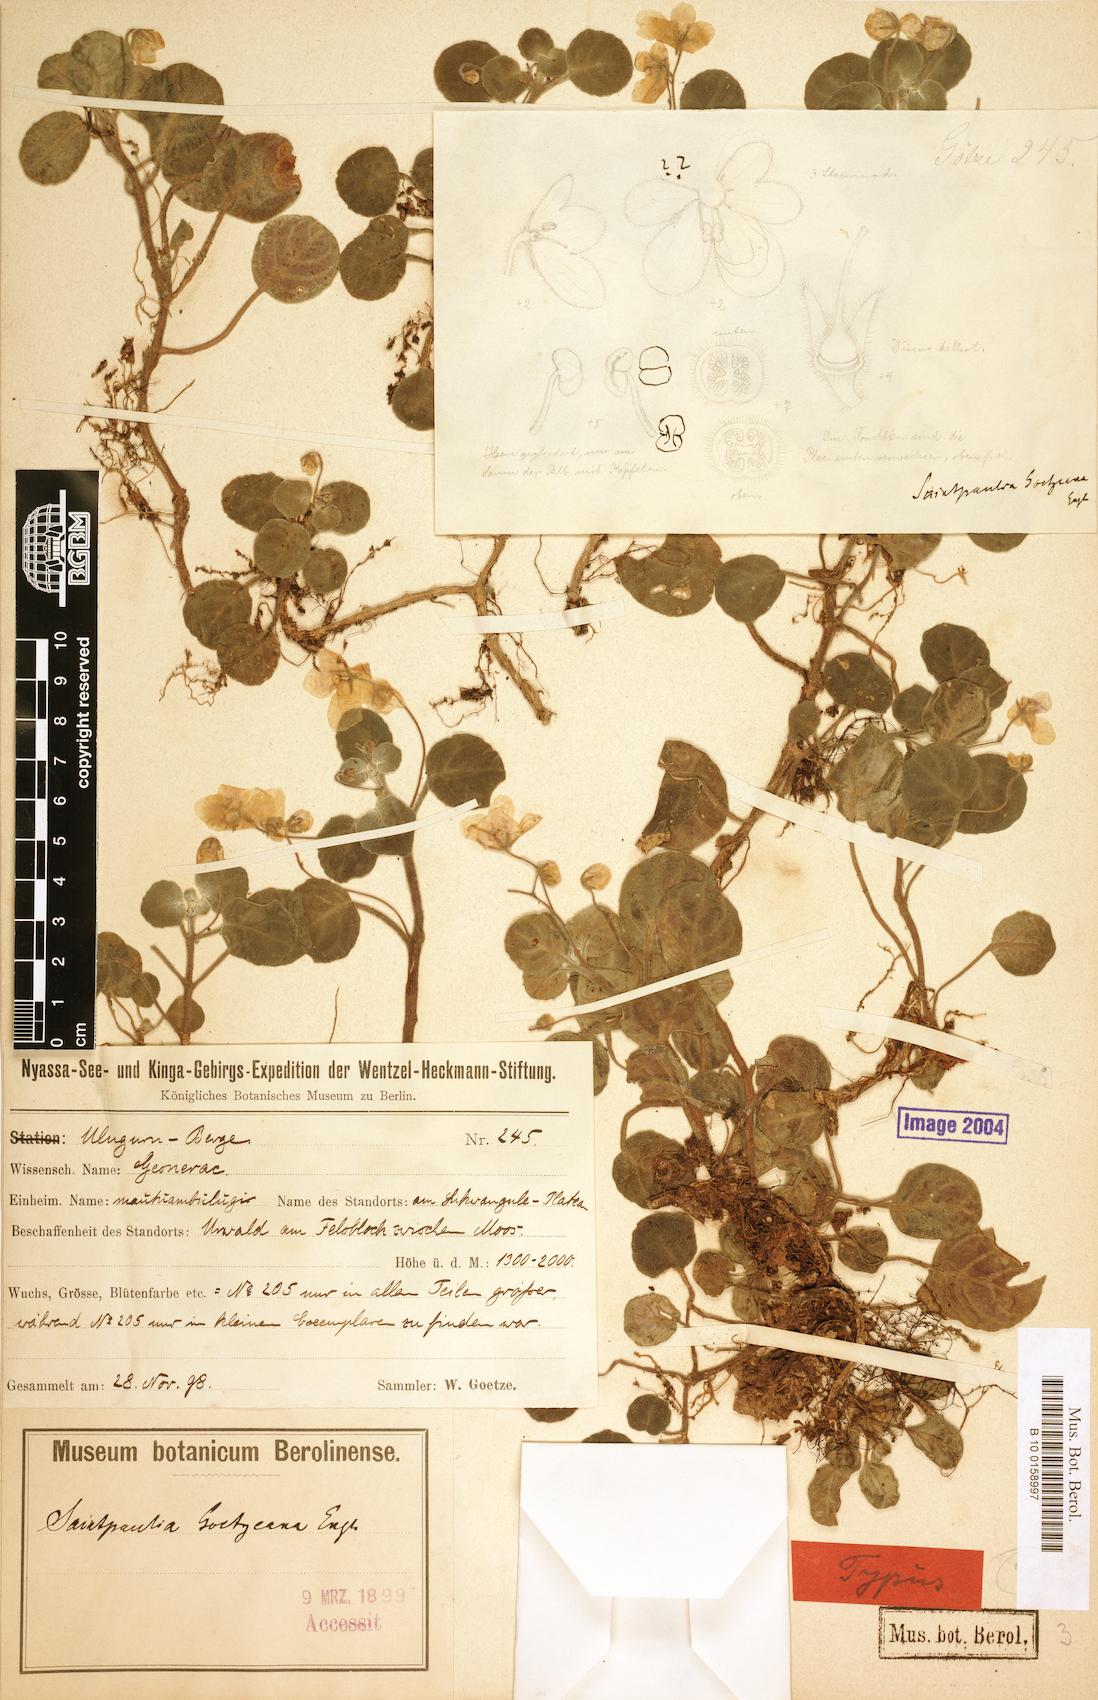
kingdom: Plantae
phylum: Tracheophyta
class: Magnoliopsida
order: Lamiales
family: Gesneriaceae
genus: Streptocarpus
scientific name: Streptocarpus goetzeanus
